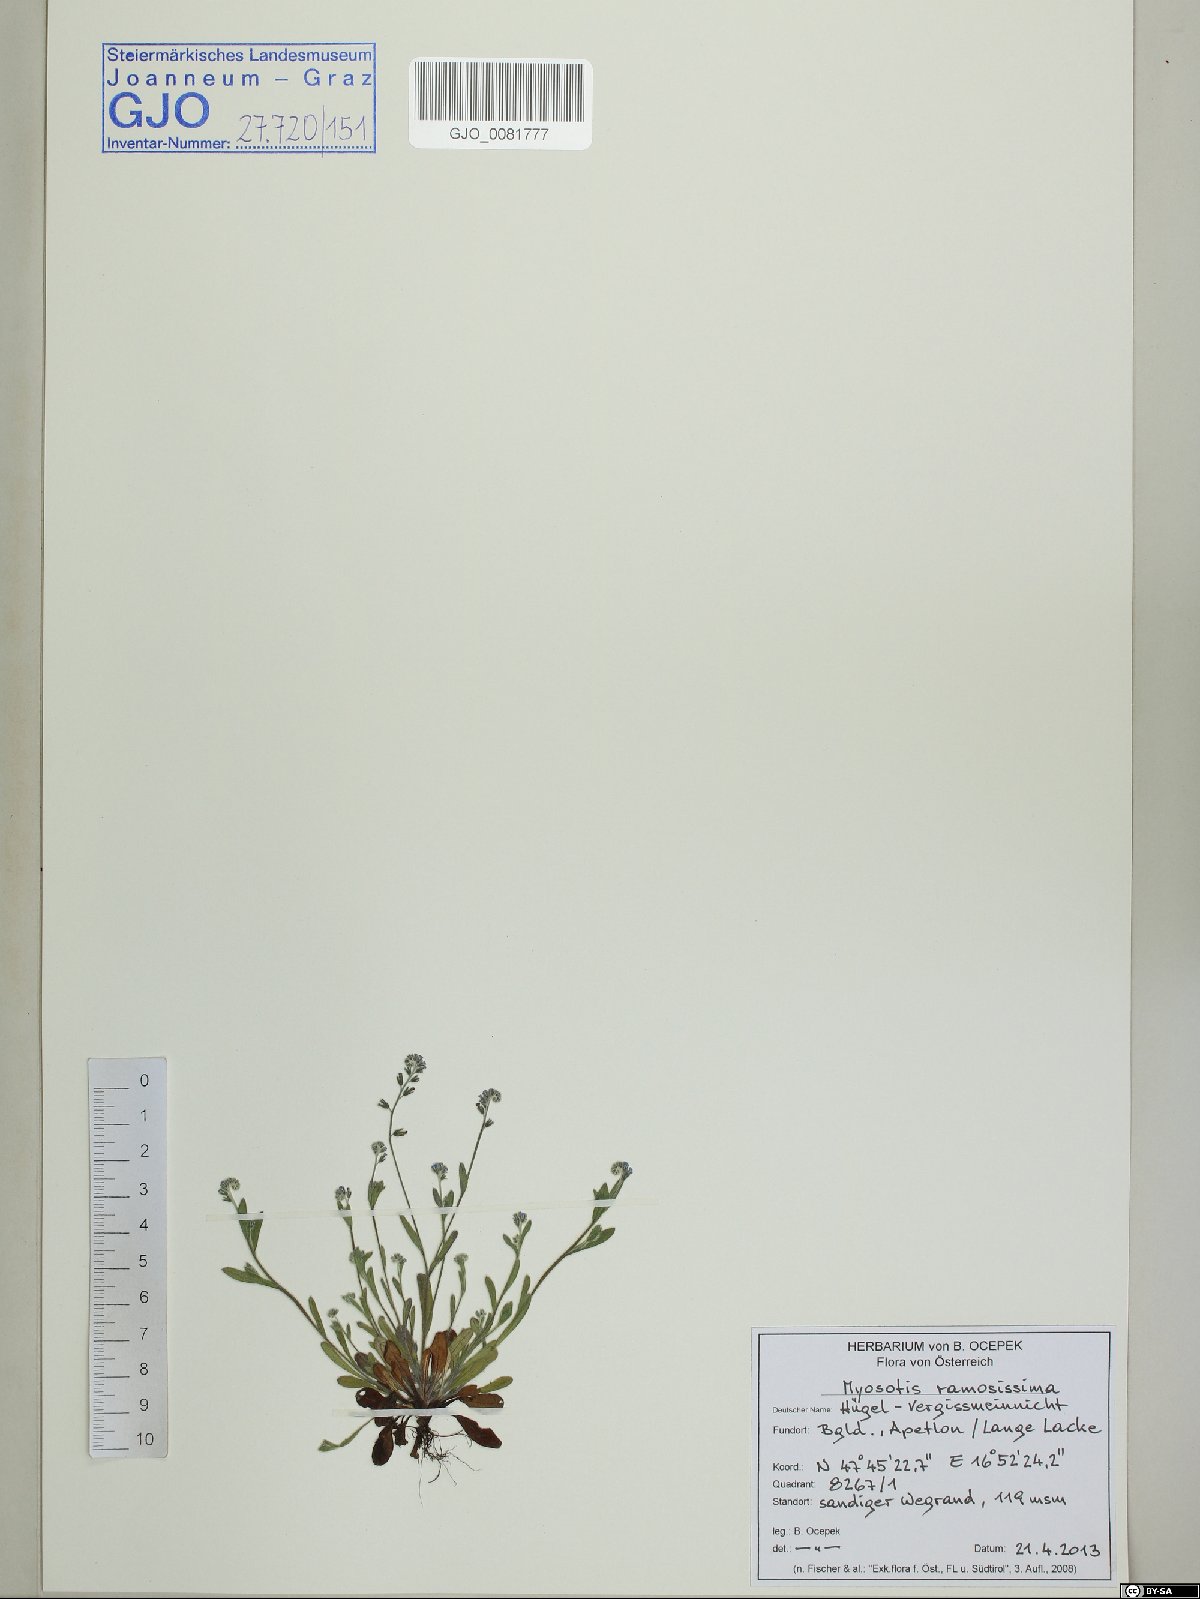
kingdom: Plantae
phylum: Tracheophyta
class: Magnoliopsida
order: Boraginales
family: Boraginaceae
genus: Myosotis
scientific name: Myosotis ramosissima
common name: Early forget-me-not
